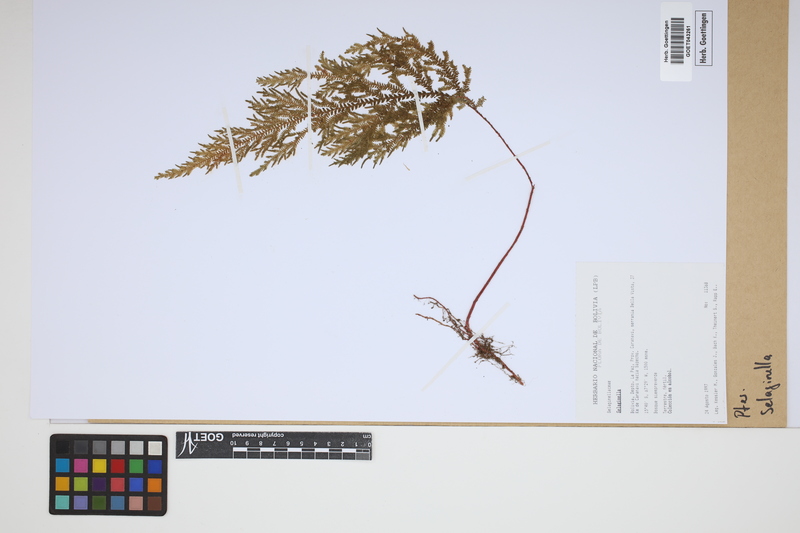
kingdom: Plantae
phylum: Tracheophyta
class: Lycopodiopsida
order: Selaginellales
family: Selaginellaceae
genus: Selaginella
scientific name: Selaginella
